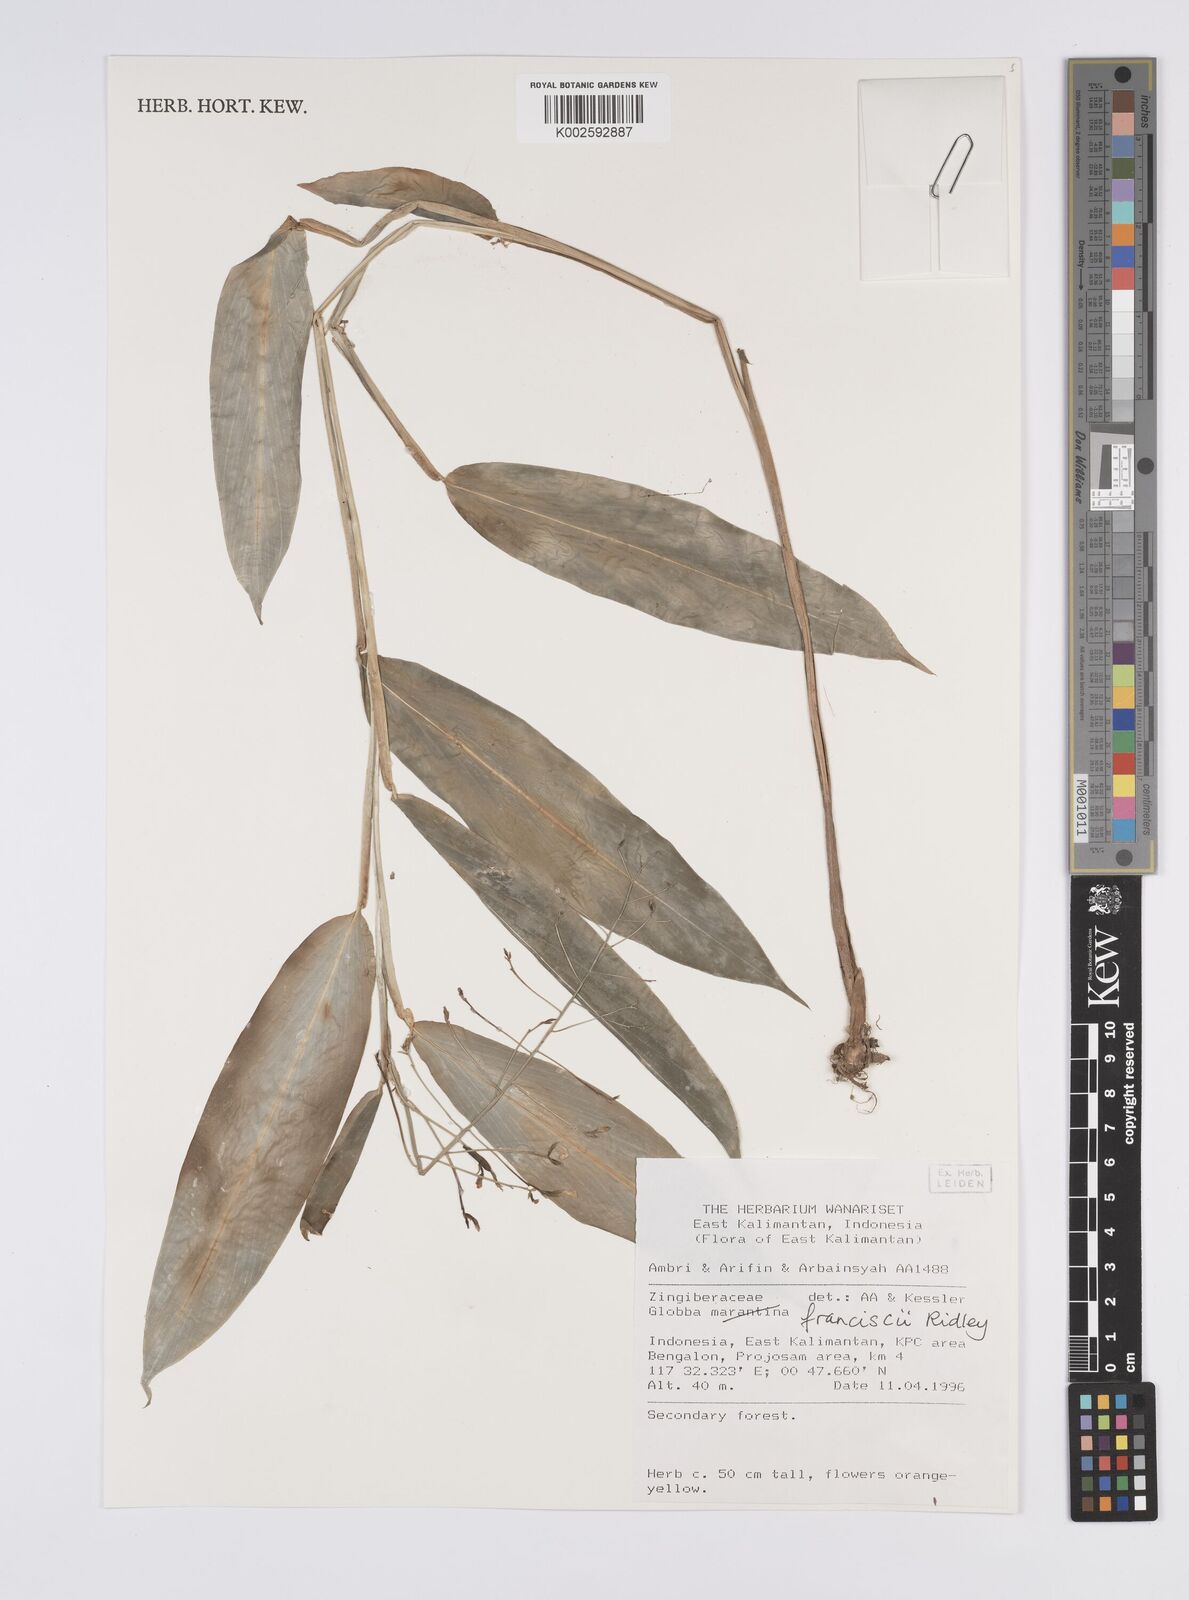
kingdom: Plantae
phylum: Tracheophyta
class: Liliopsida
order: Zingiberales
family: Zingiberaceae
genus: Globba
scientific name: Globba francisci
